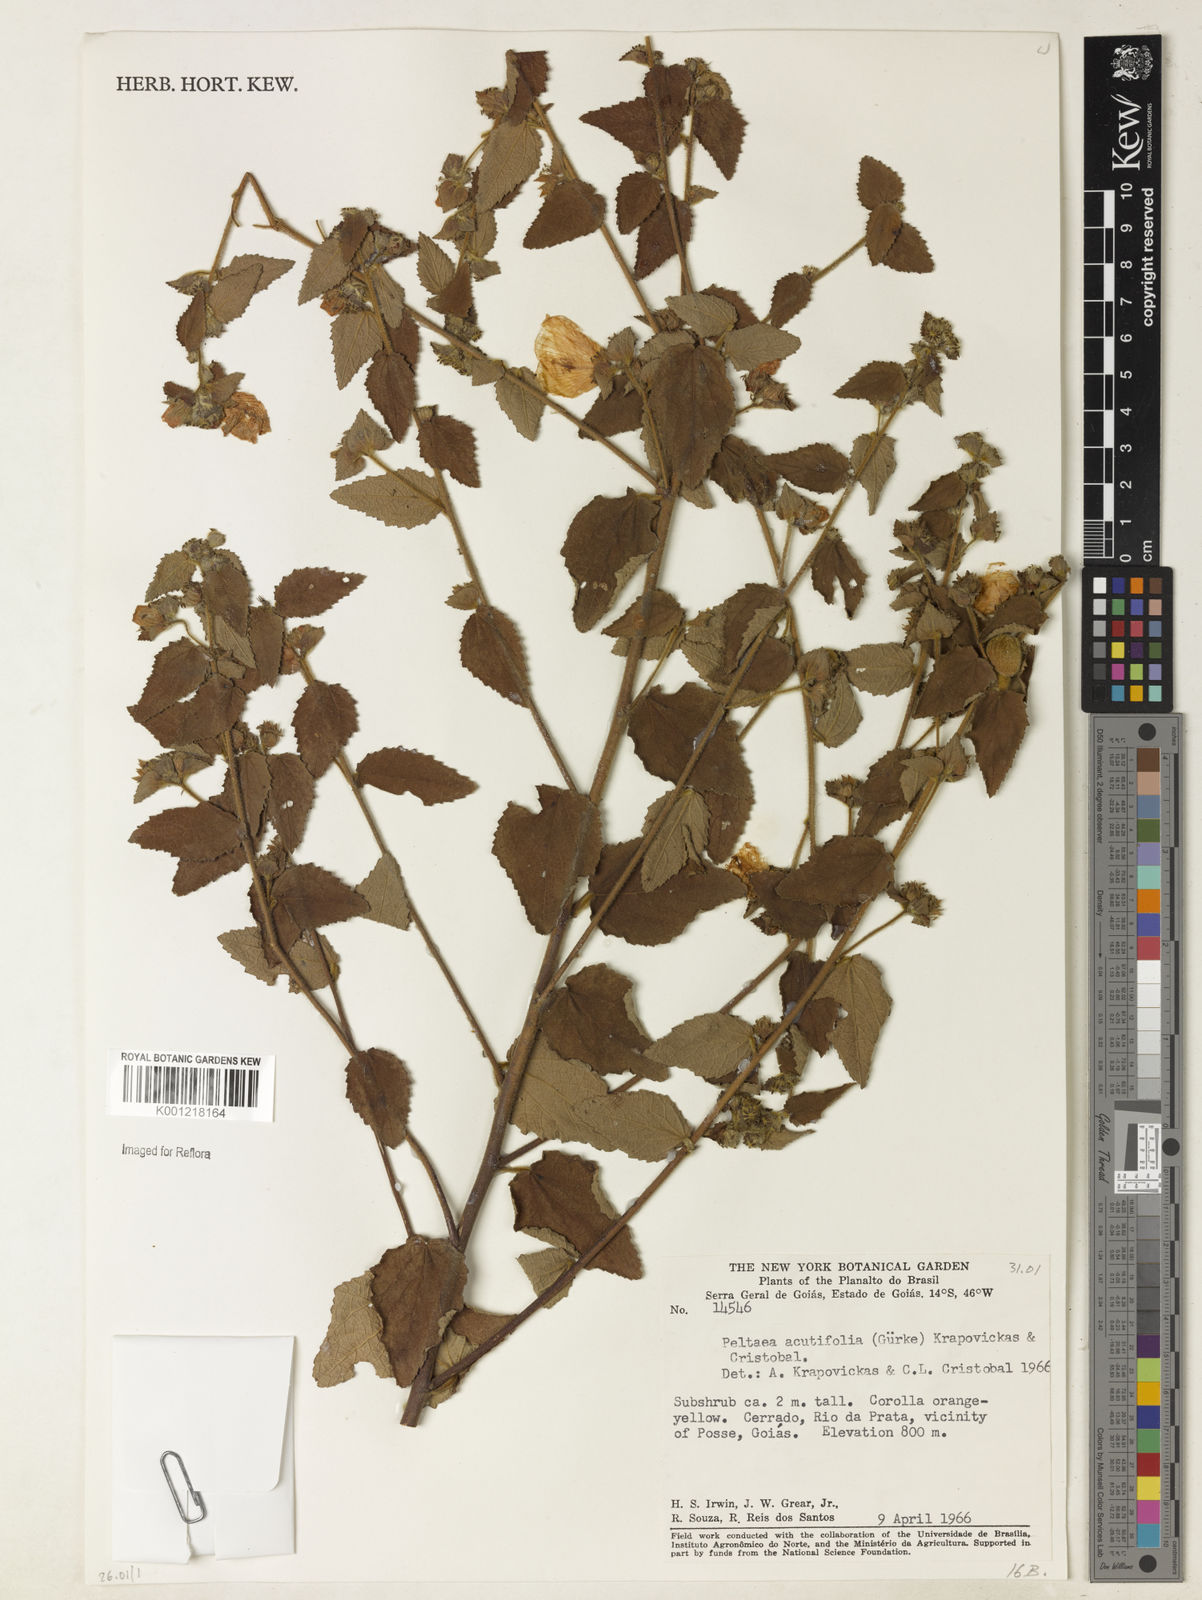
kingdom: Plantae
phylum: Tracheophyta
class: Magnoliopsida
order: Malvales
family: Malvaceae
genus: Peltaea
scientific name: Peltaea
